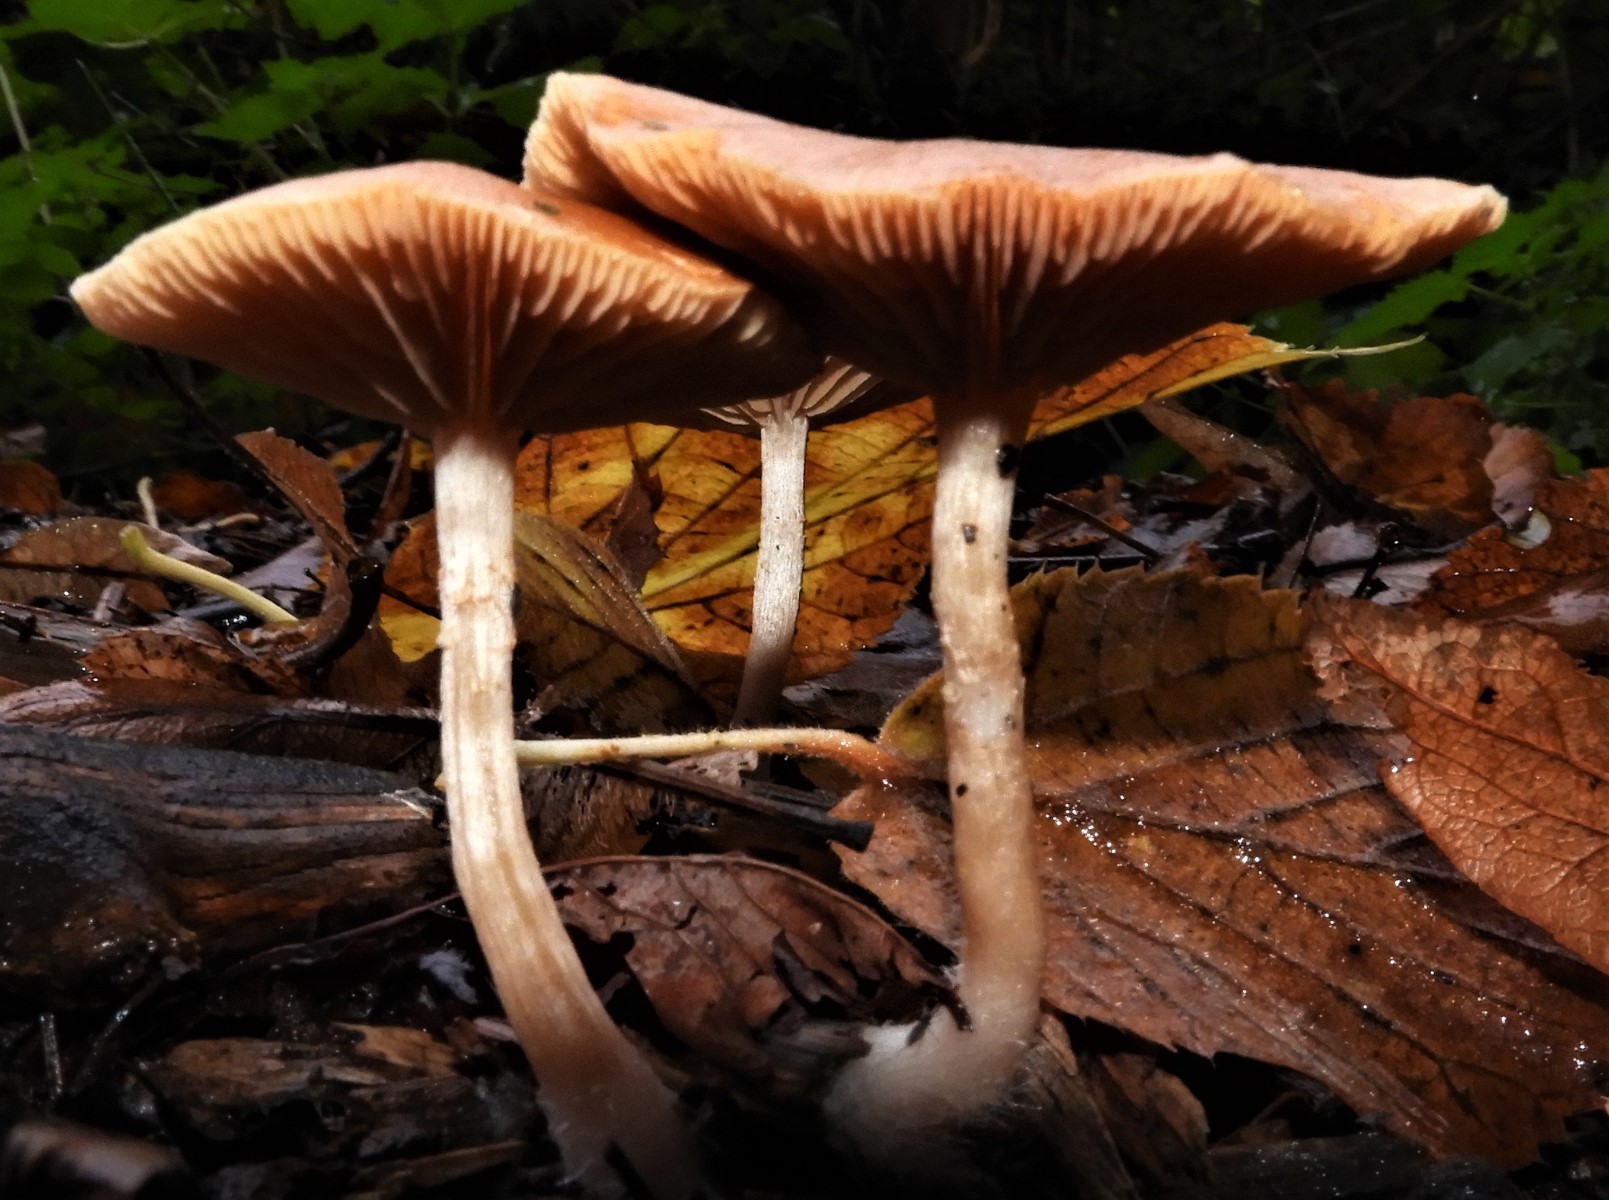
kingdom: Fungi
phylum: Basidiomycota
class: Agaricomycetes
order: Agaricales
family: Tubariaceae
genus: Tubaria
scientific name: Tubaria furfuracea
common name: kliddet fnughat
